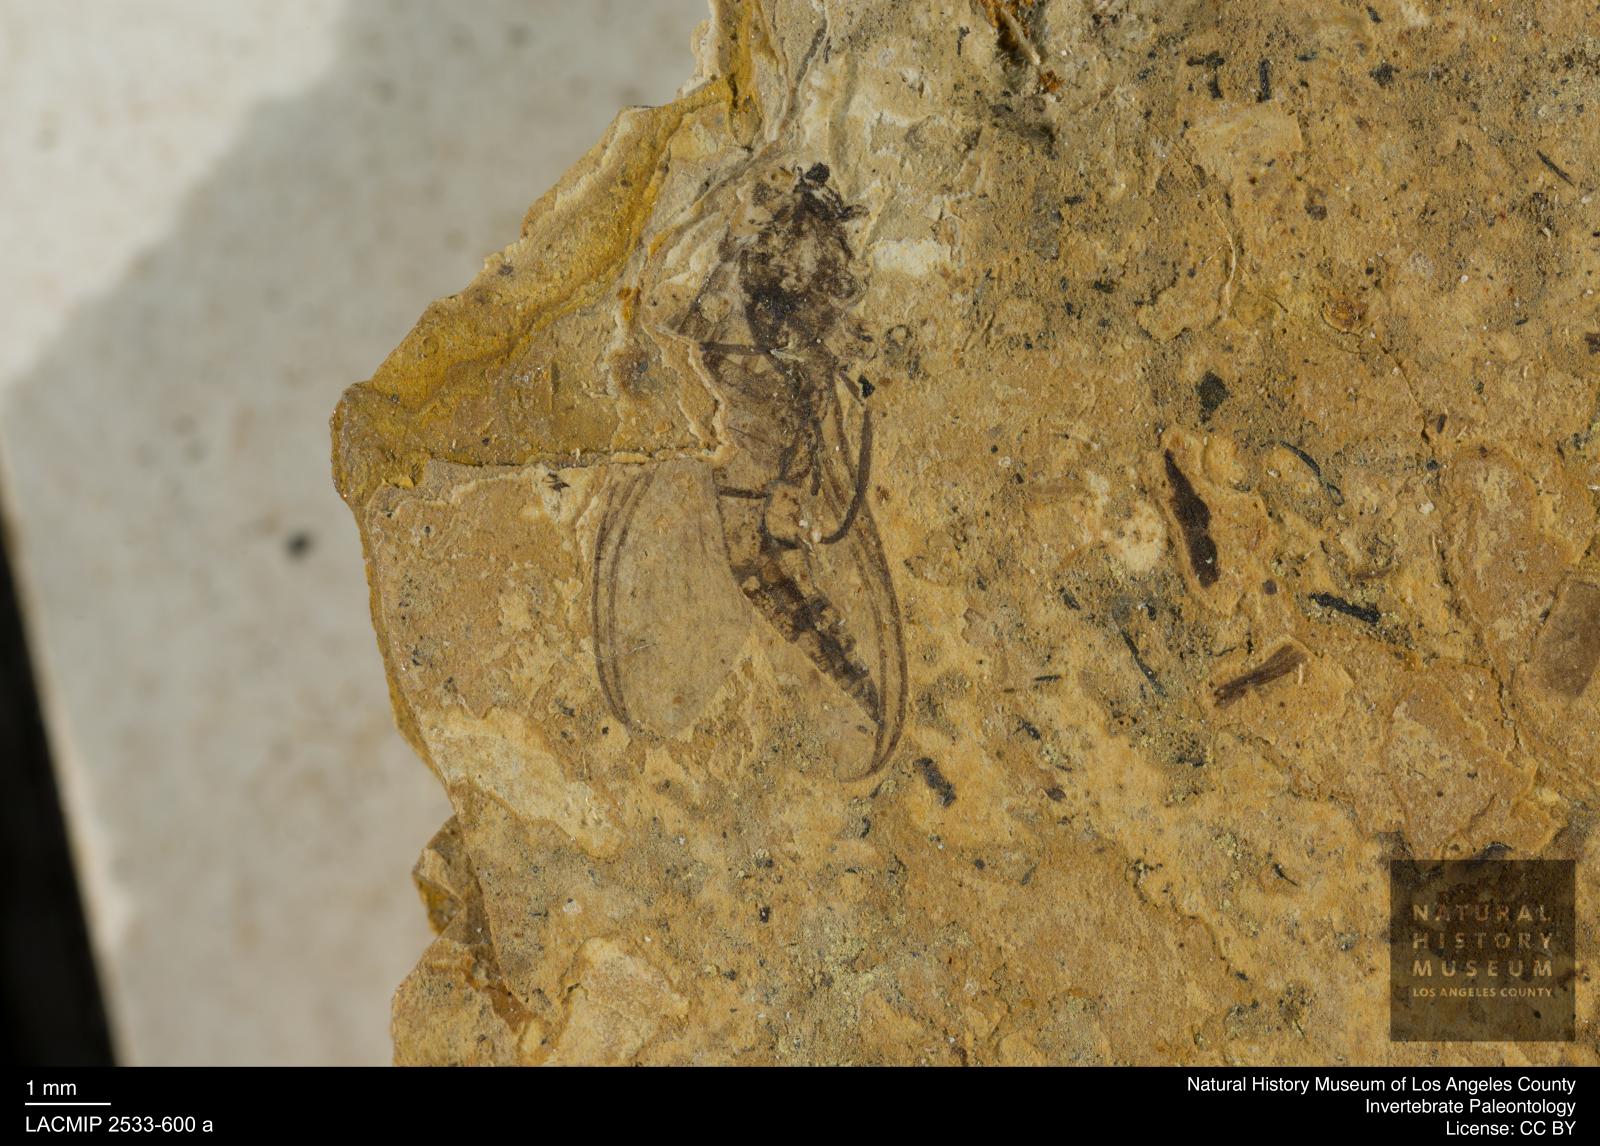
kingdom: Animalia
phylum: Arthropoda
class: Insecta
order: Diptera
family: Sciaridae
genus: Sciara
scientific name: Sciara pelidua
